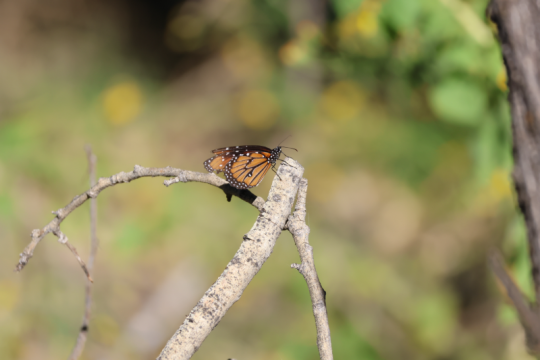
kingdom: Animalia
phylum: Arthropoda
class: Insecta
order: Lepidoptera
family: Nymphalidae
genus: Danaus
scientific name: Danaus gilippus
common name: Queen
